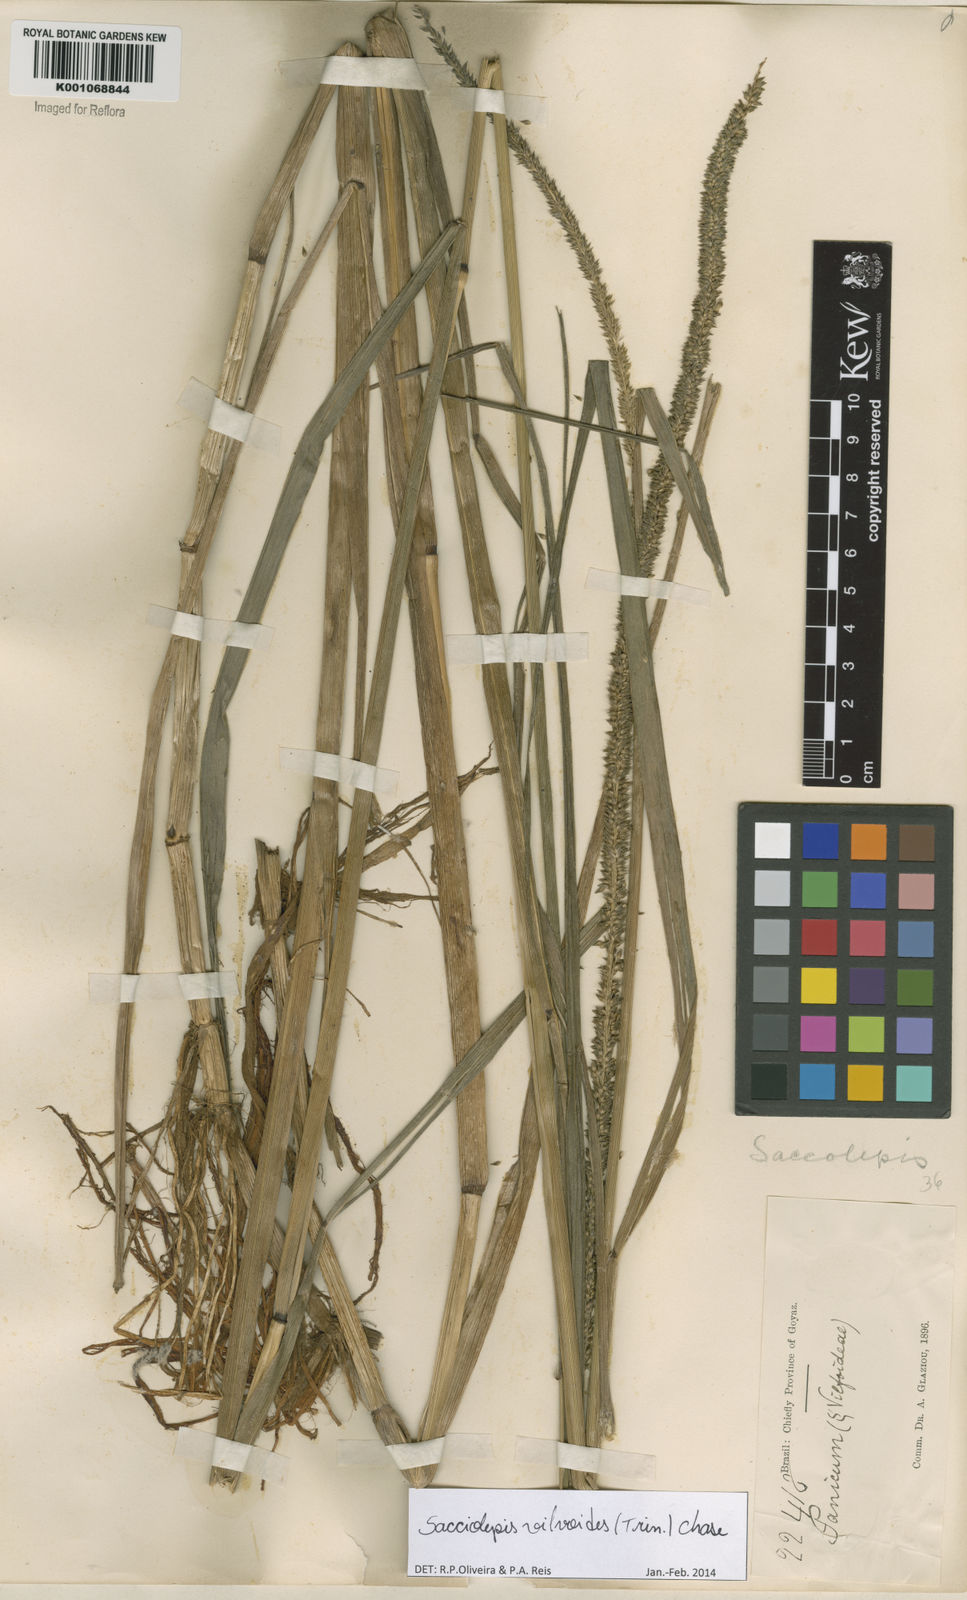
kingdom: Plantae
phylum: Tracheophyta
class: Liliopsida
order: Poales
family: Poaceae
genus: Sacciolepis
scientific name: Sacciolepis vilvoides
